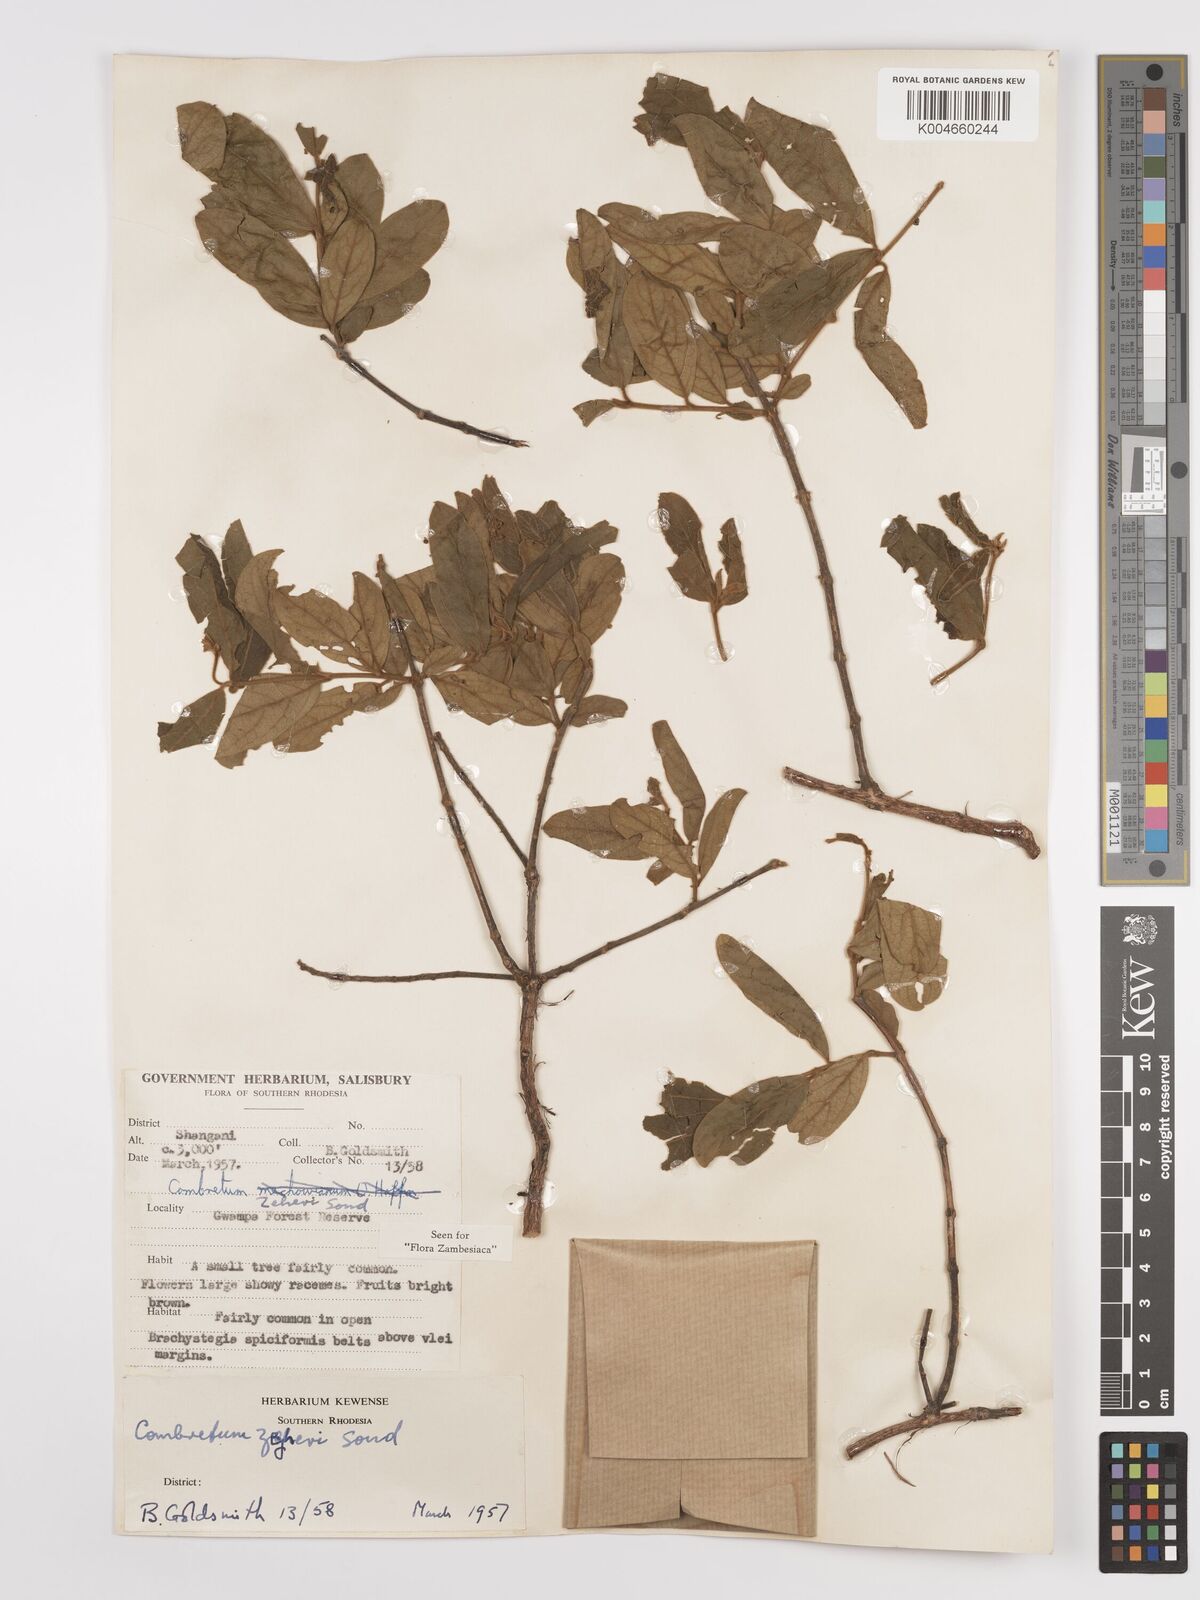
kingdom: Plantae
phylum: Tracheophyta
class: Magnoliopsida
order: Myrtales
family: Combretaceae
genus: Combretum
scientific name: Combretum zeyheri
